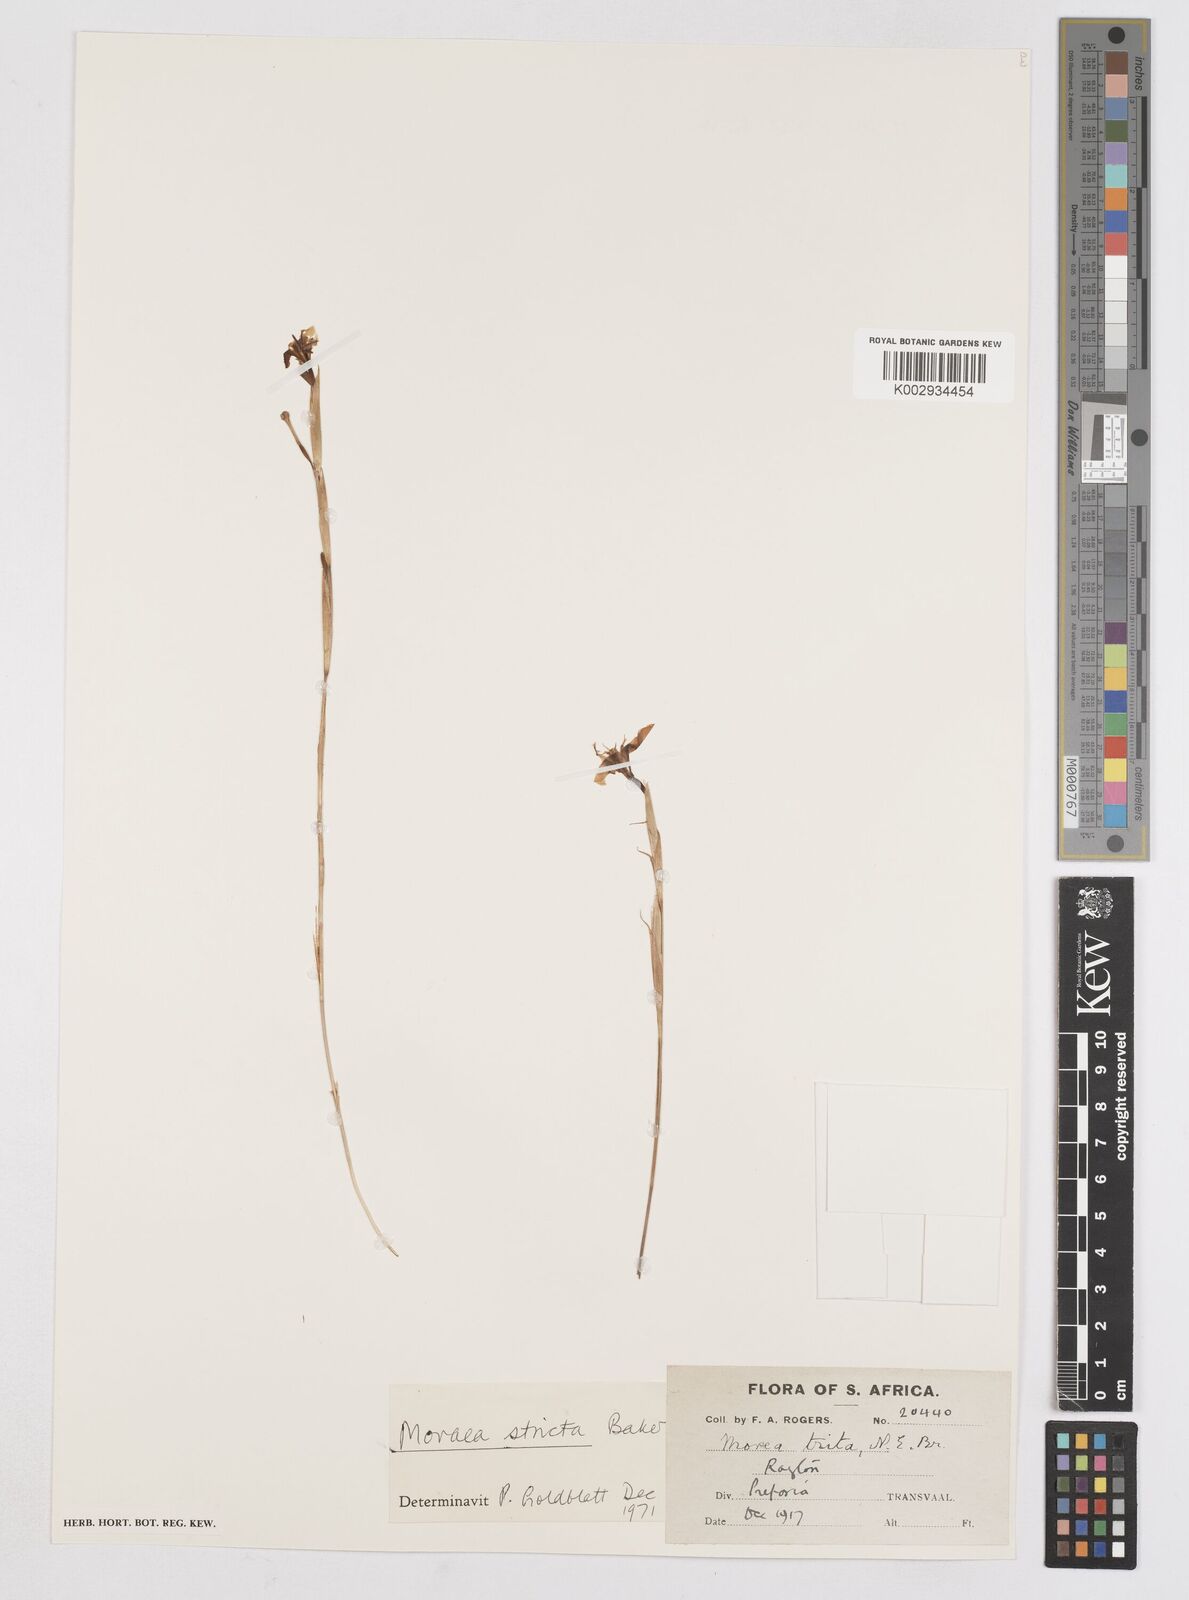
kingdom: Plantae
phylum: Tracheophyta
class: Liliopsida
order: Asparagales
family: Iridaceae
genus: Moraea
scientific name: Moraea stricta
